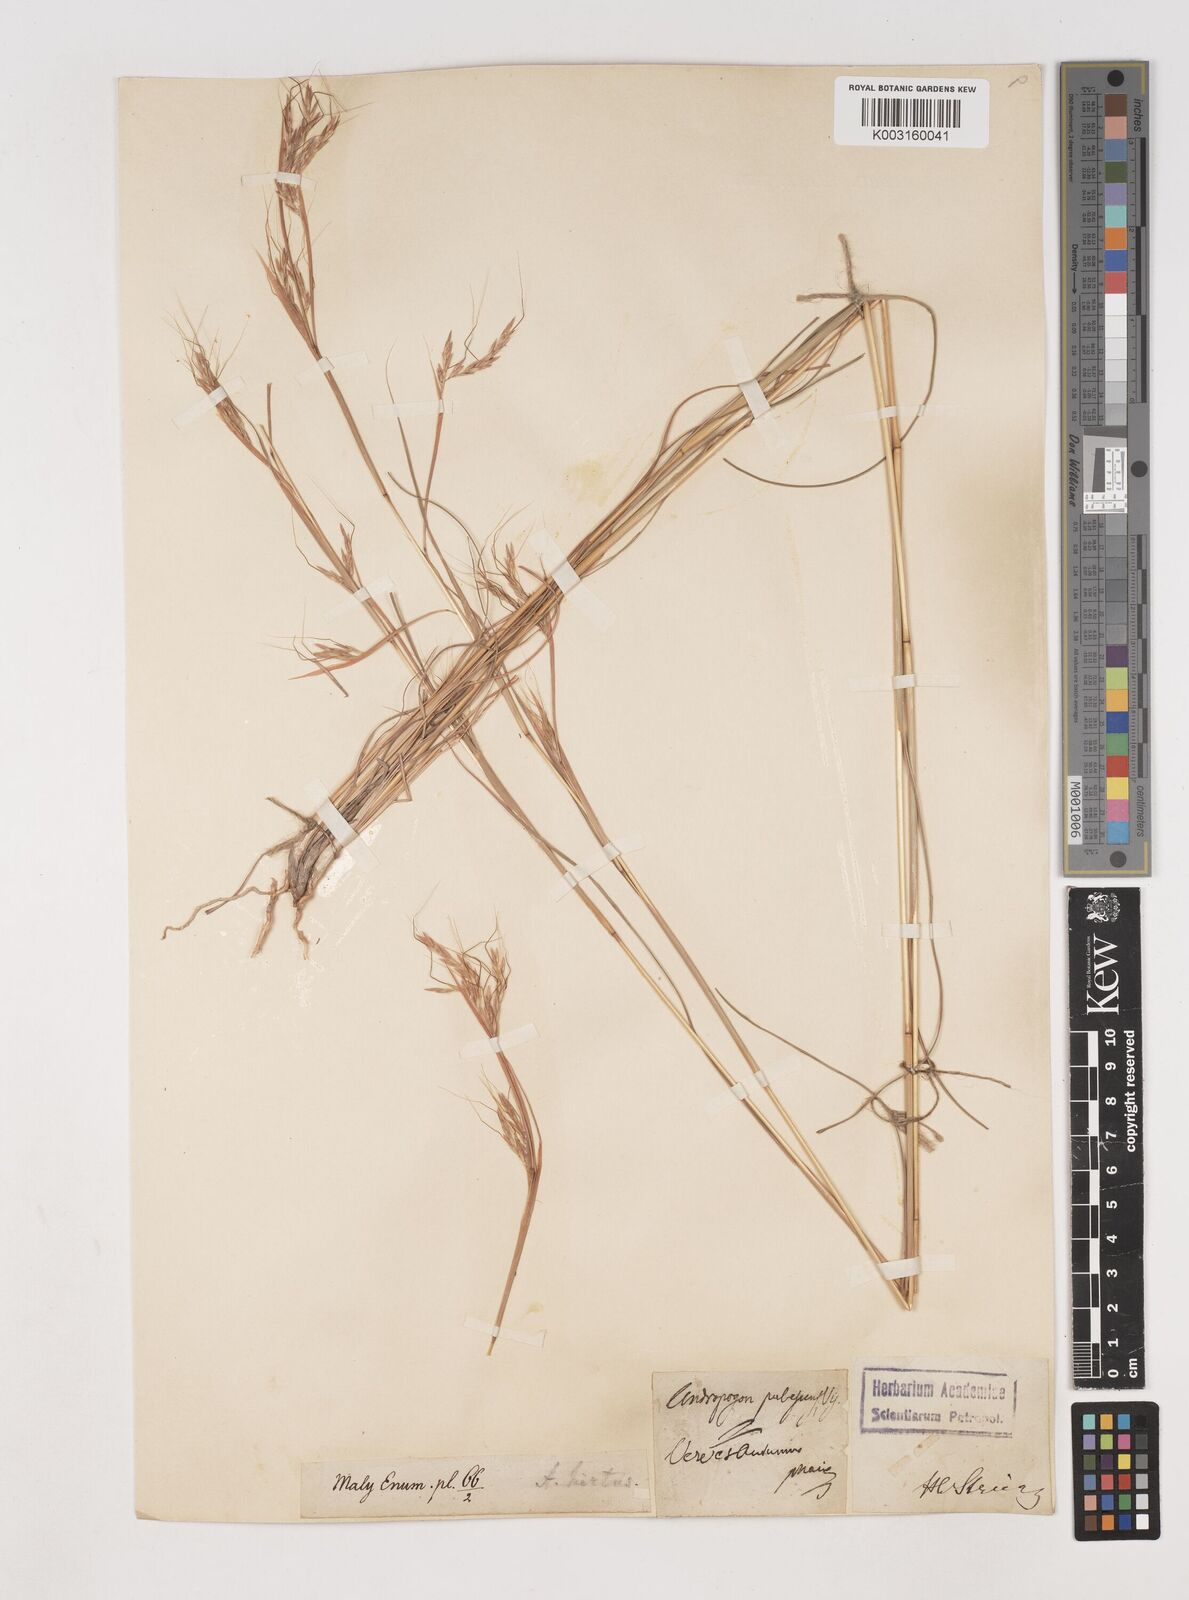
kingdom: Plantae
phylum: Tracheophyta
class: Liliopsida
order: Poales
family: Poaceae
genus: Hyparrhenia
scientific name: Hyparrhenia hirta
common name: Thatching grass
